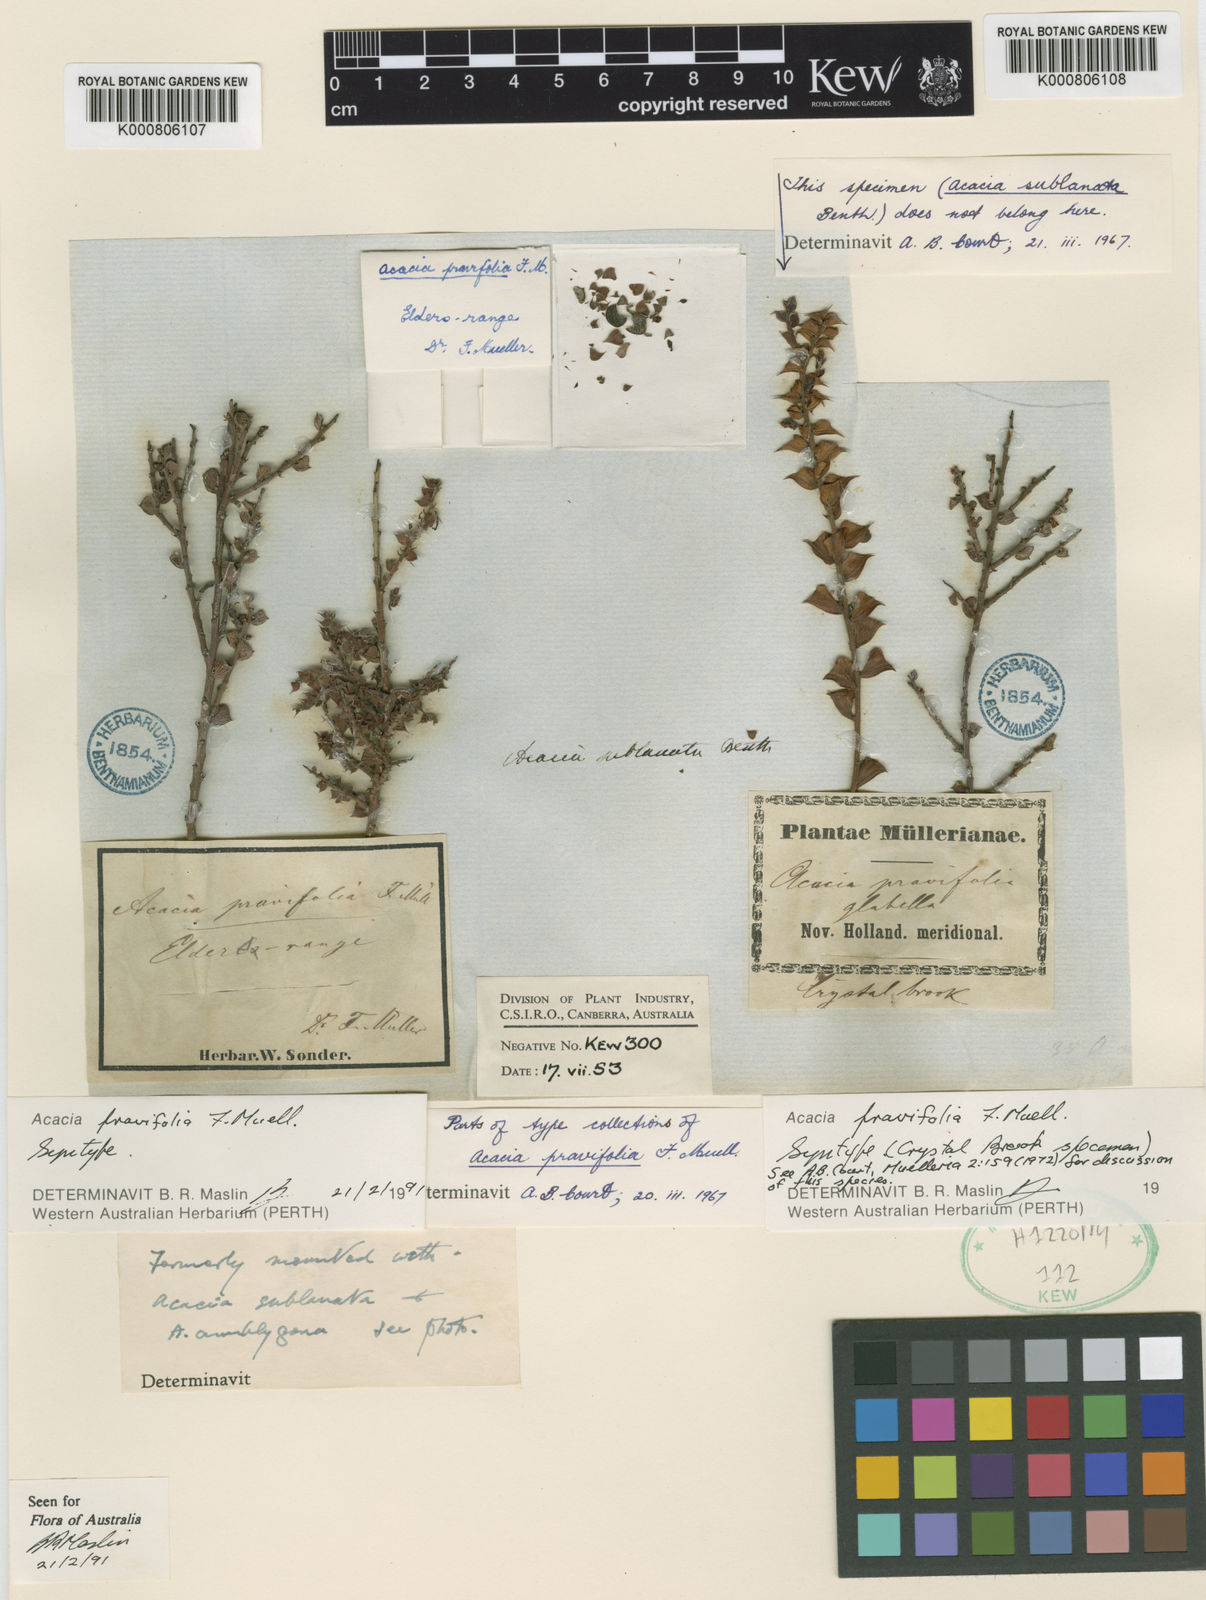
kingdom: Plantae
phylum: Tracheophyta
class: Magnoliopsida
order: Fabales
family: Fabaceae
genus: Acacia
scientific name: Acacia pravifolia
